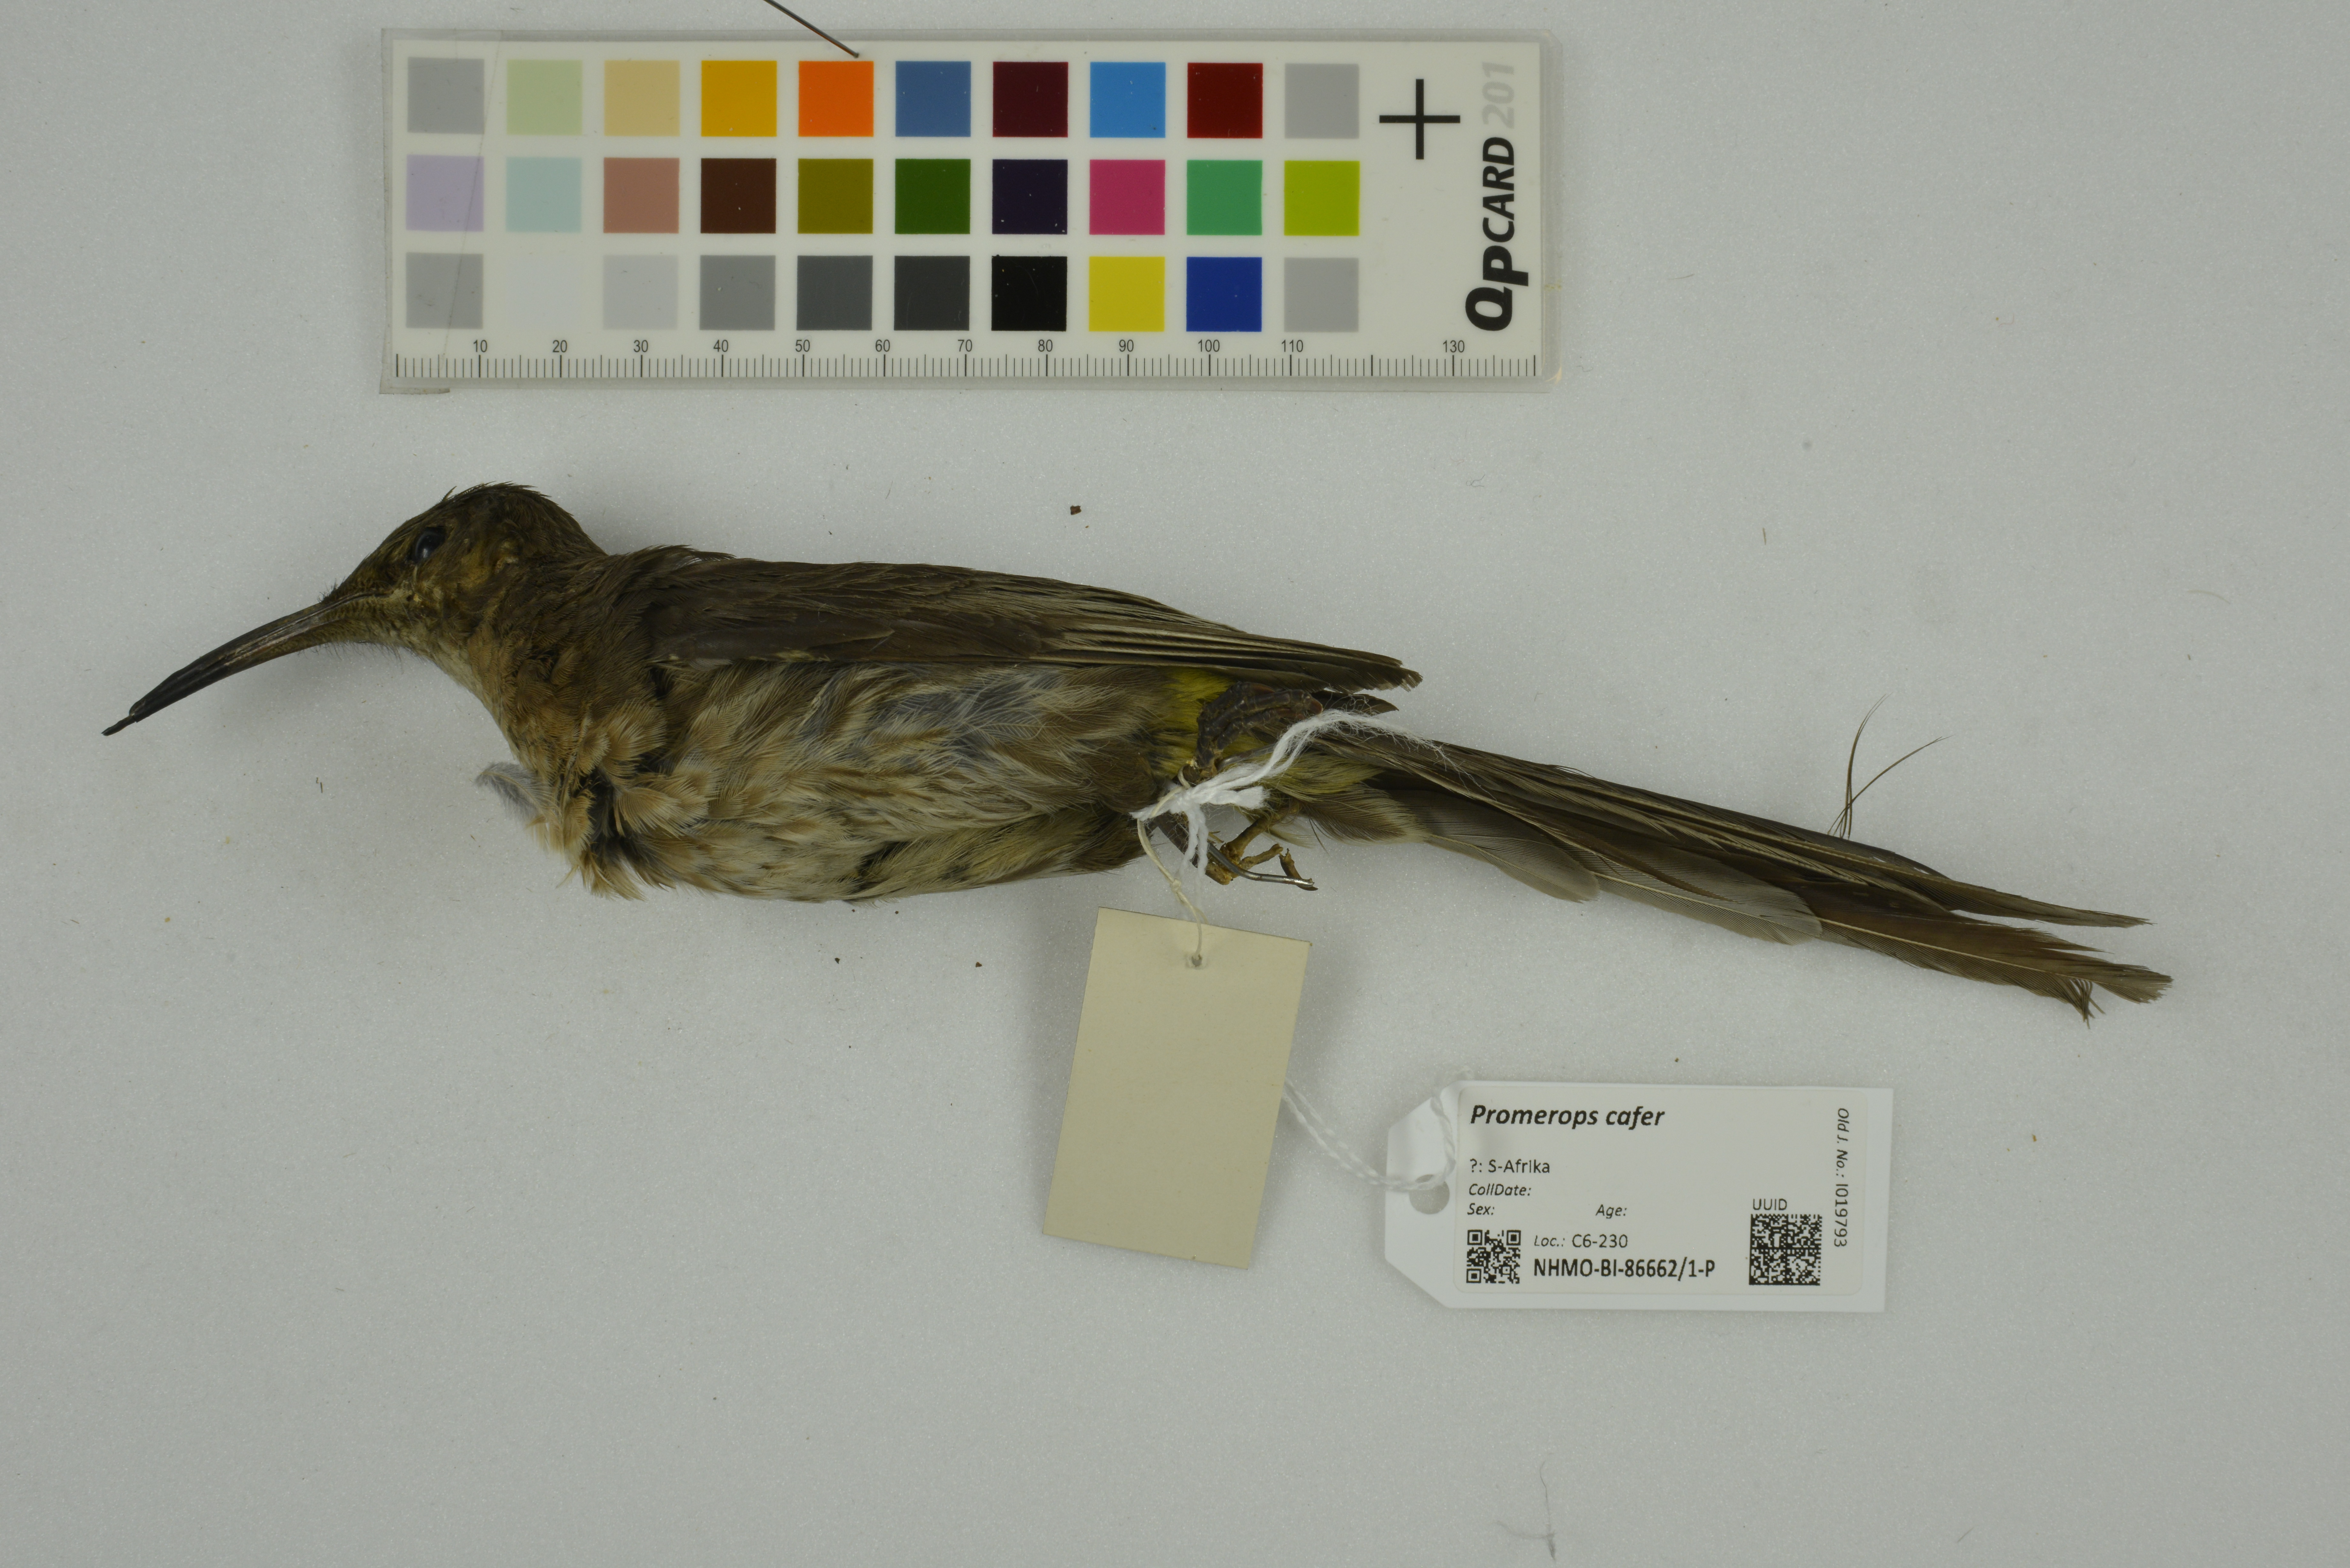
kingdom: Animalia
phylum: Chordata
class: Aves
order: Passeriformes
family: Promeropidae
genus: Promerops
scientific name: Promerops cafer
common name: Cape sugarbird
